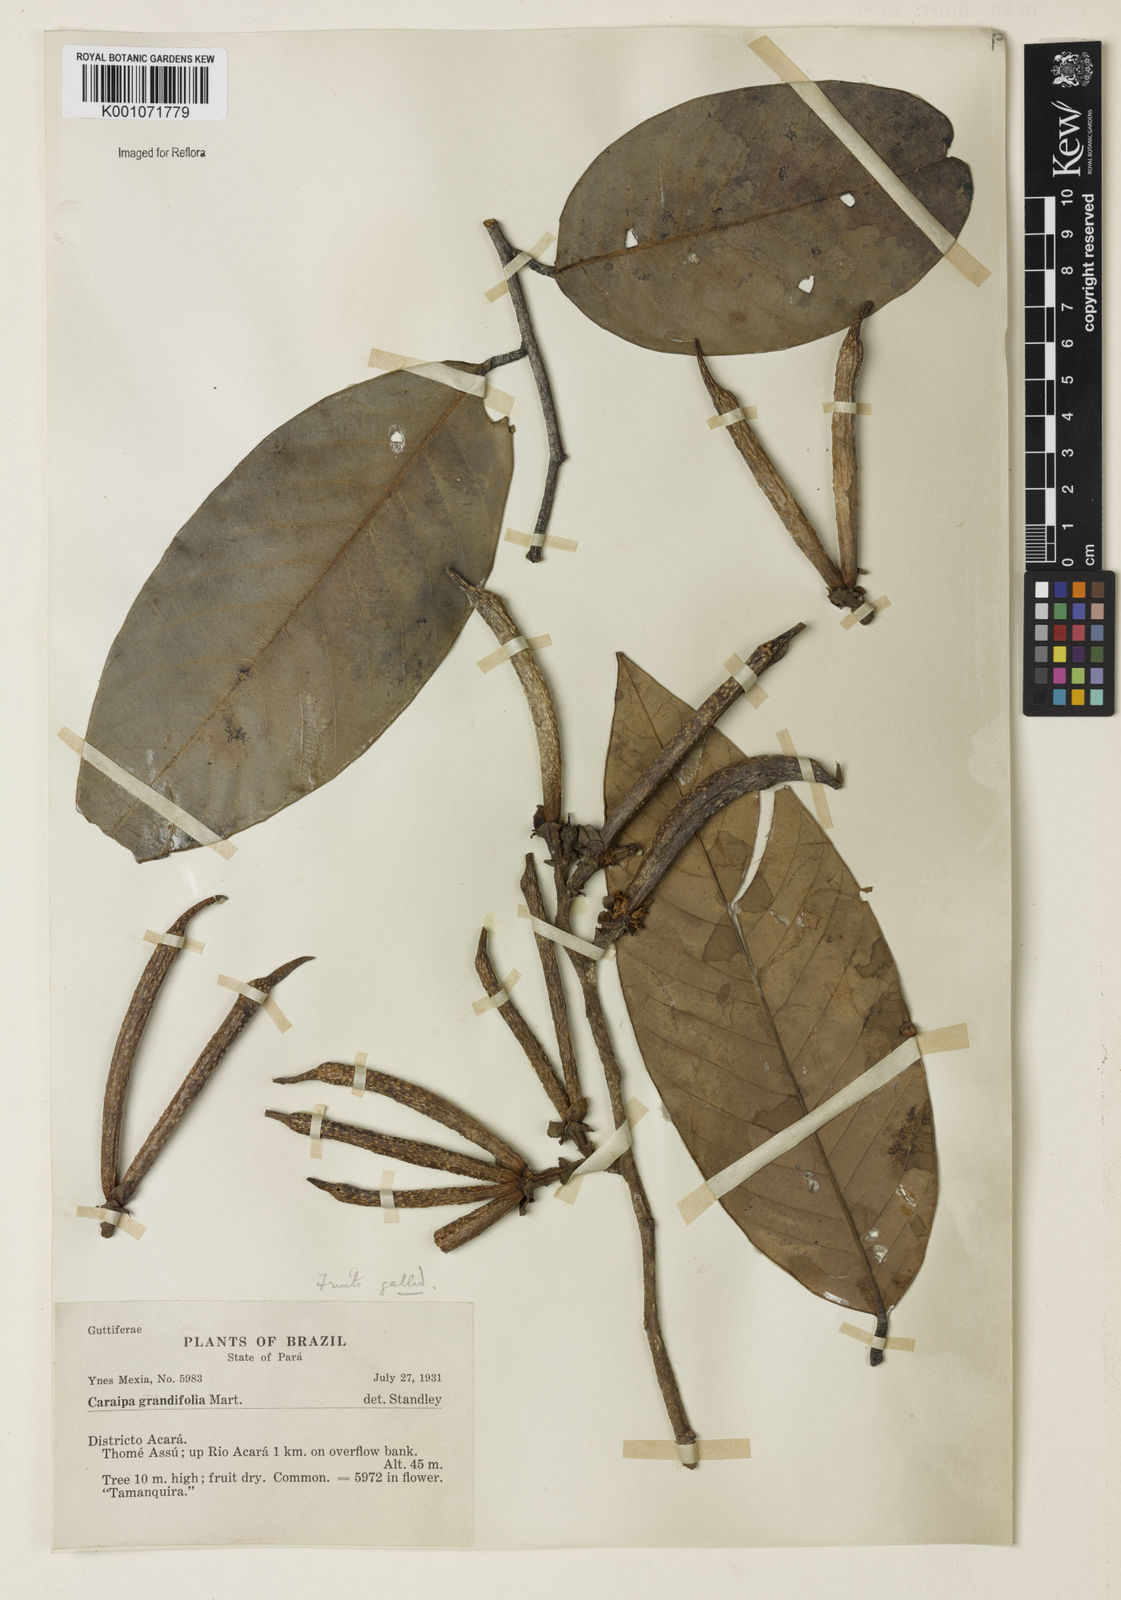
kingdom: Plantae
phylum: Tracheophyta
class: Magnoliopsida
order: Malpighiales
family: Calophyllaceae
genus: Caraipa
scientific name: Caraipa grandifolia
